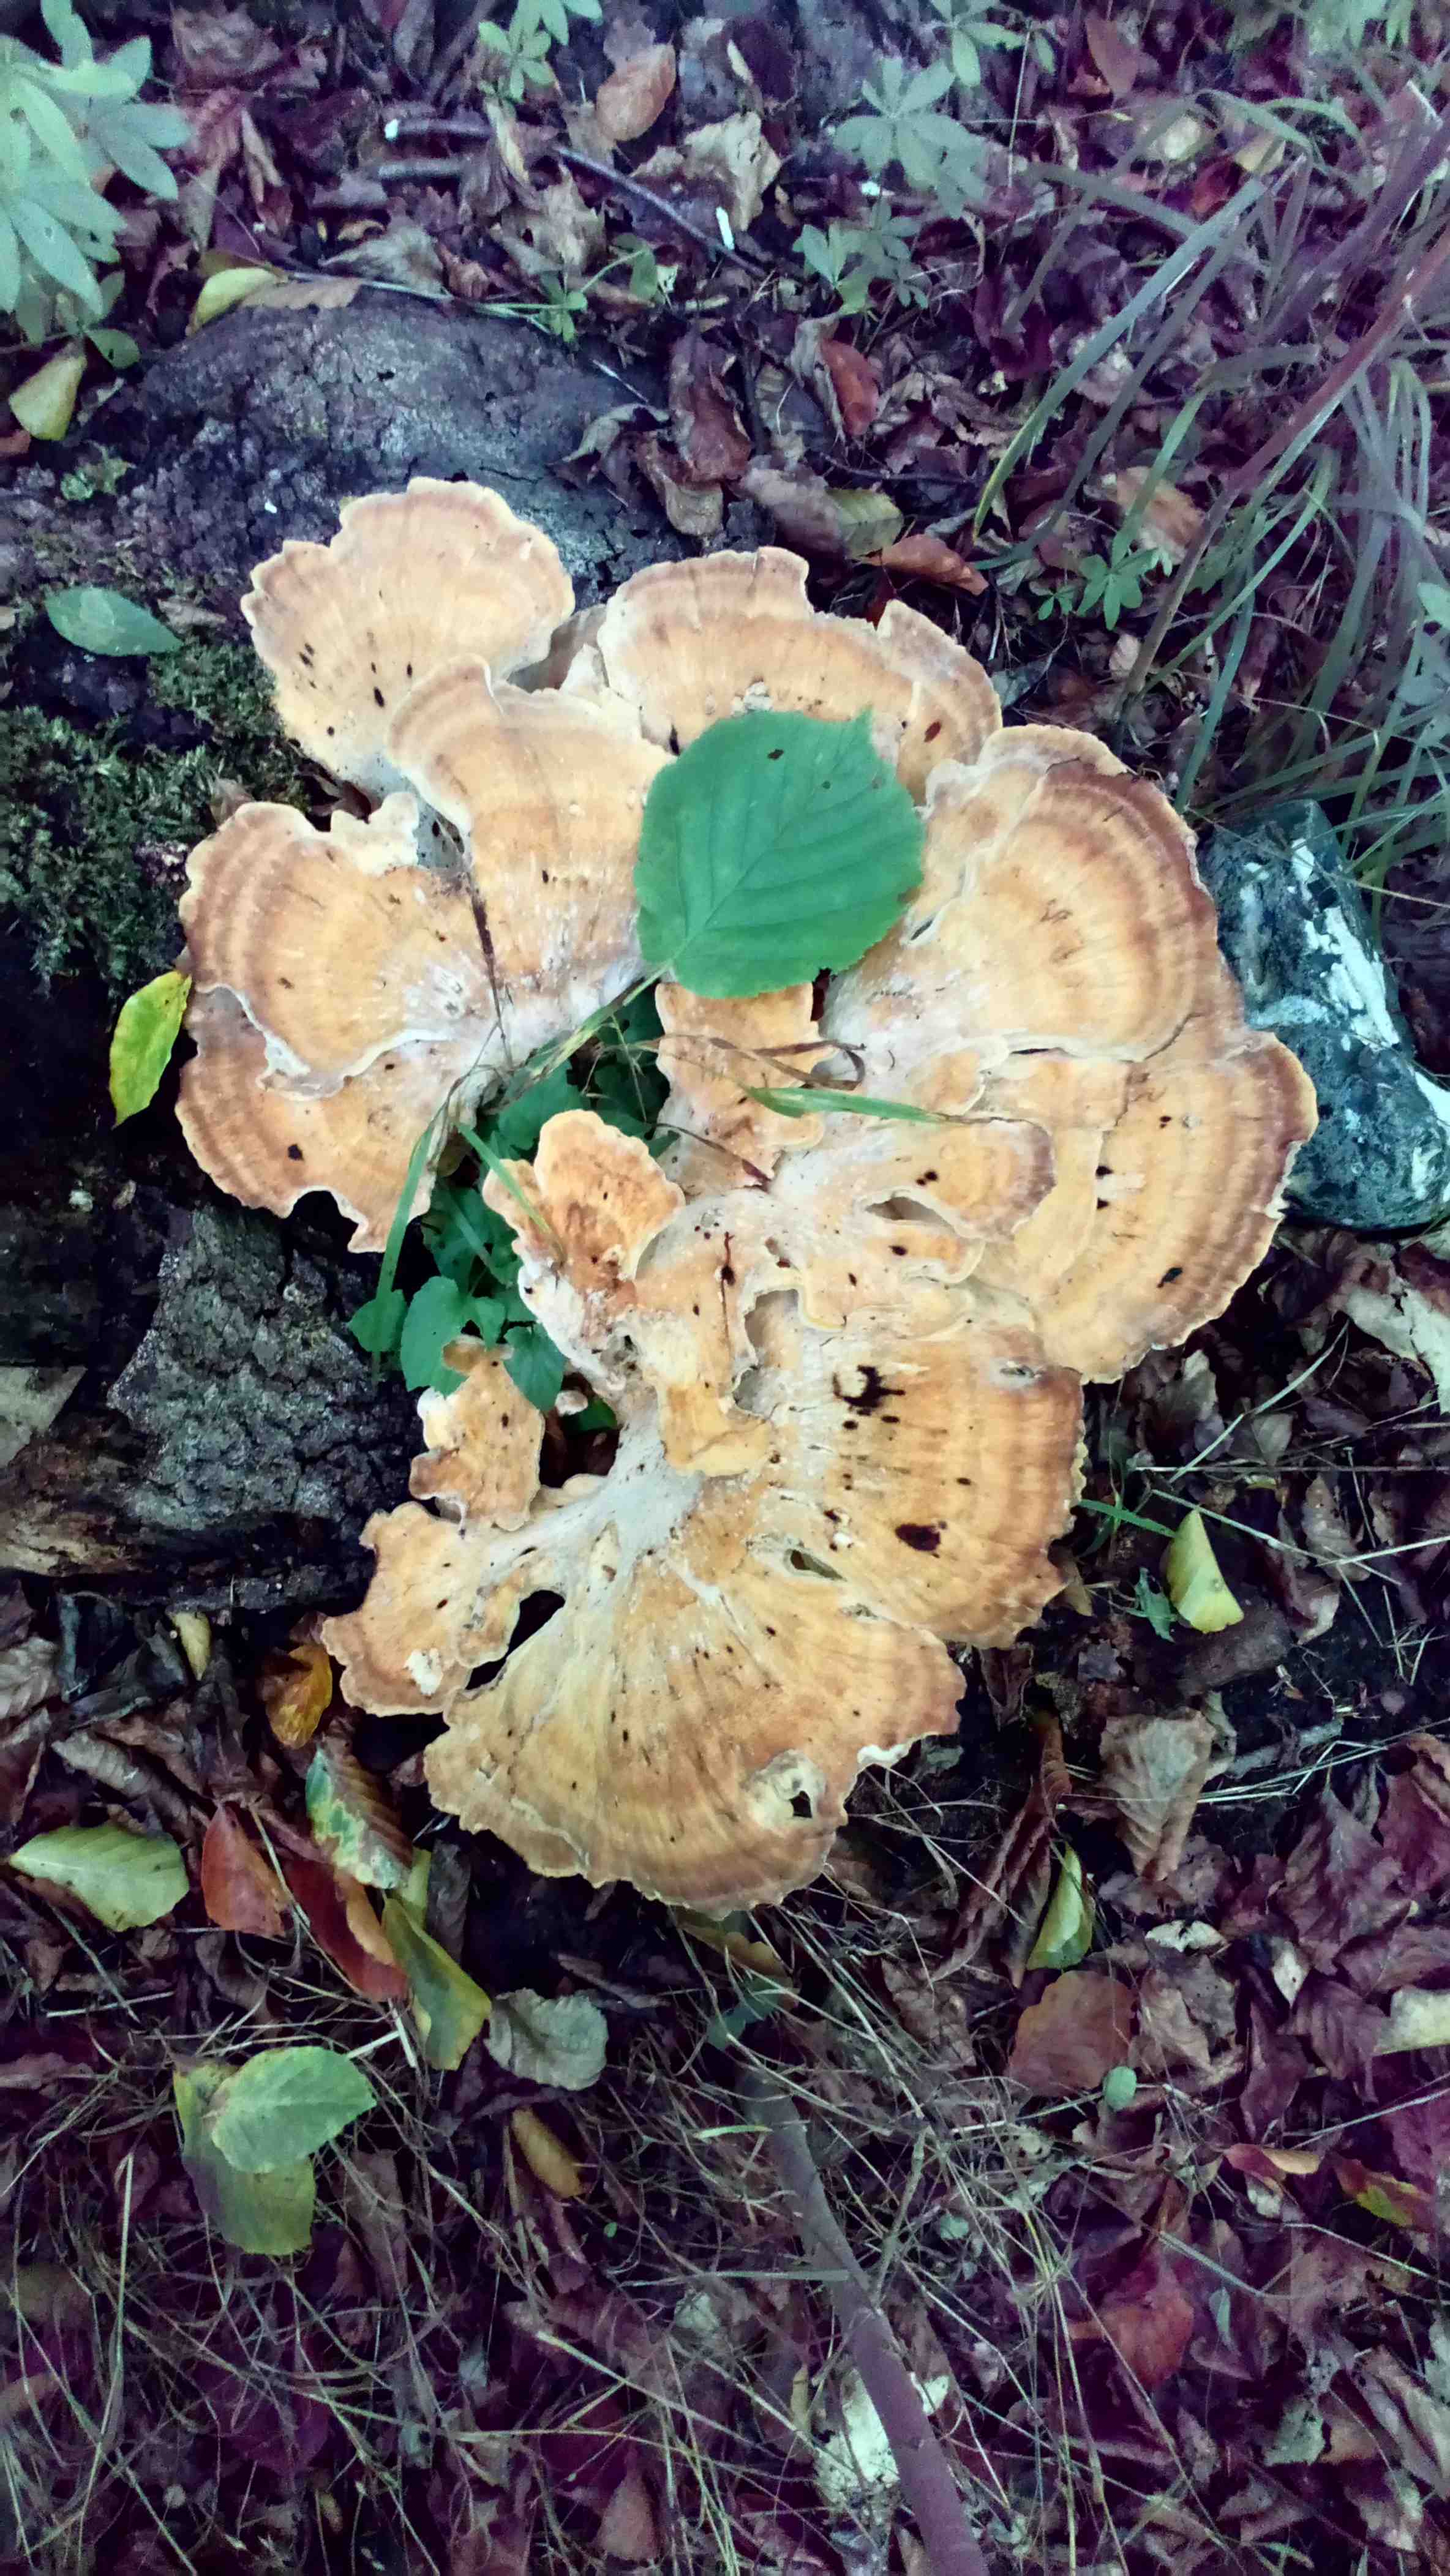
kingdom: Fungi
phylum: Basidiomycota
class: Agaricomycetes
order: Polyporales
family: Meripilaceae
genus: Meripilus
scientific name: Meripilus giganteus
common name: kæmpeporesvamp
